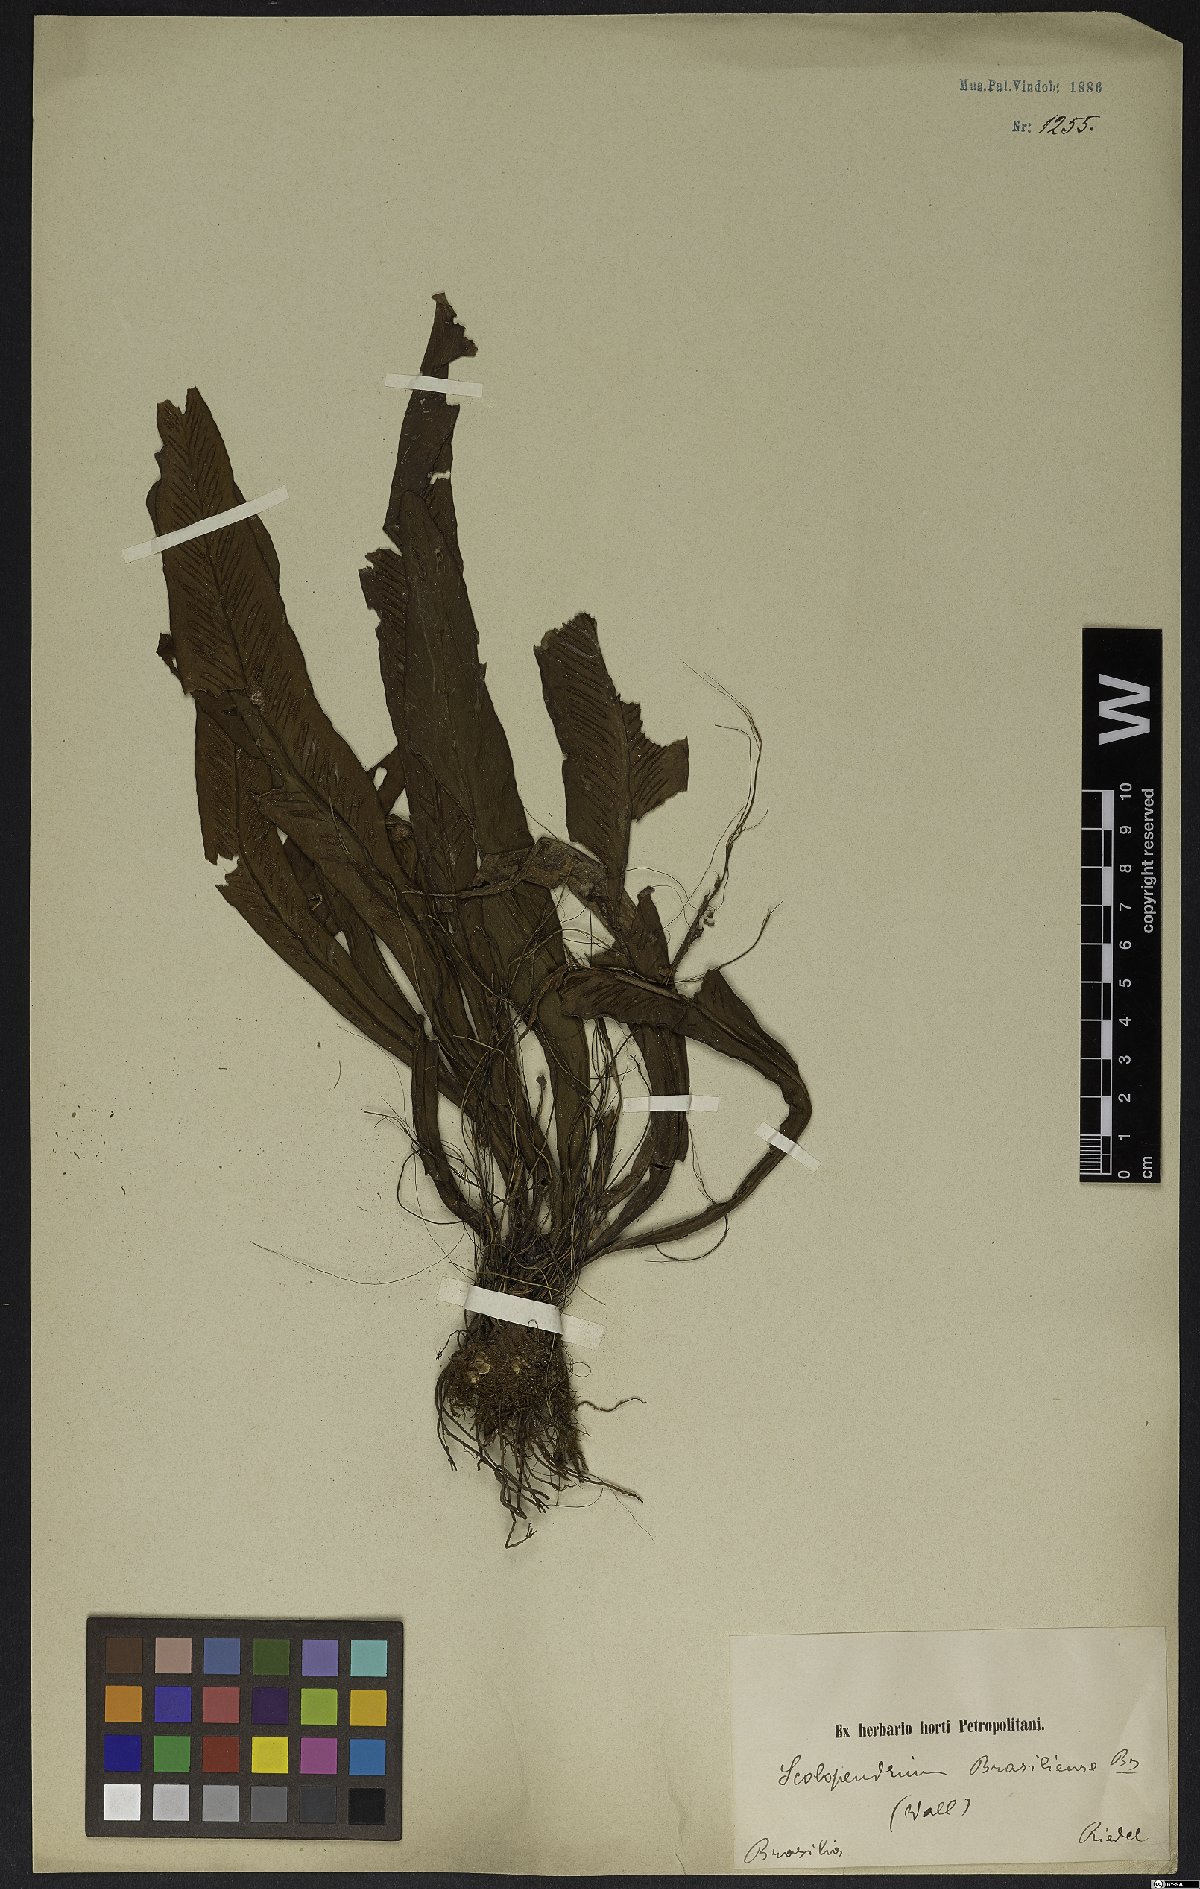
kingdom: Plantae
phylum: Tracheophyta
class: Polypodiopsida
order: Polypodiales
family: Aspleniaceae
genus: Asplenium
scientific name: Asplenium brasiliense
